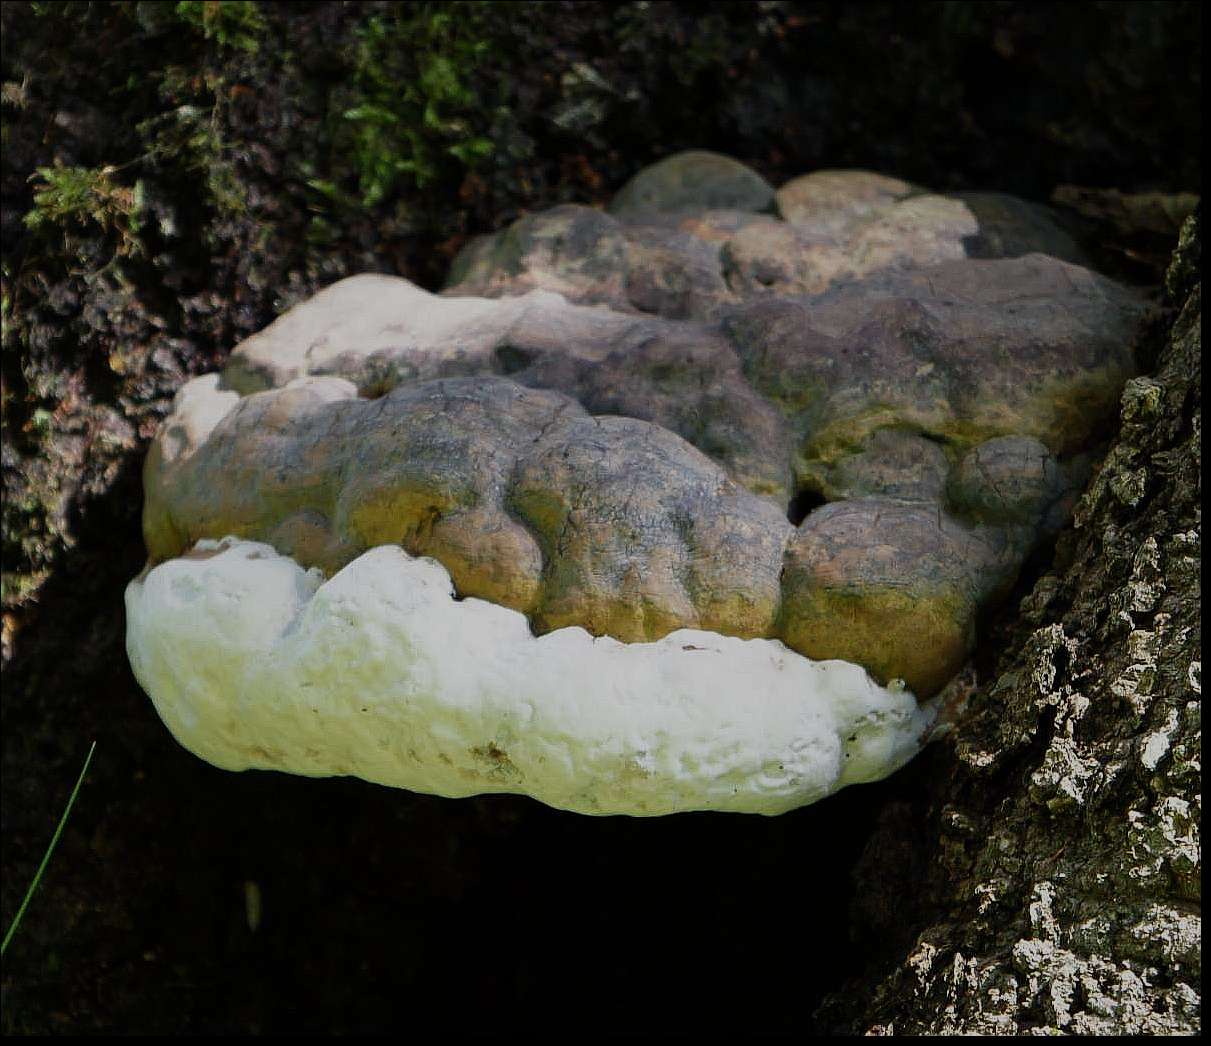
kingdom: Fungi
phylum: Basidiomycota
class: Agaricomycetes
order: Polyporales
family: Polyporaceae
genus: Ganoderma
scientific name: Ganoderma pfeifferi
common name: kobberrød lakporesvamp
